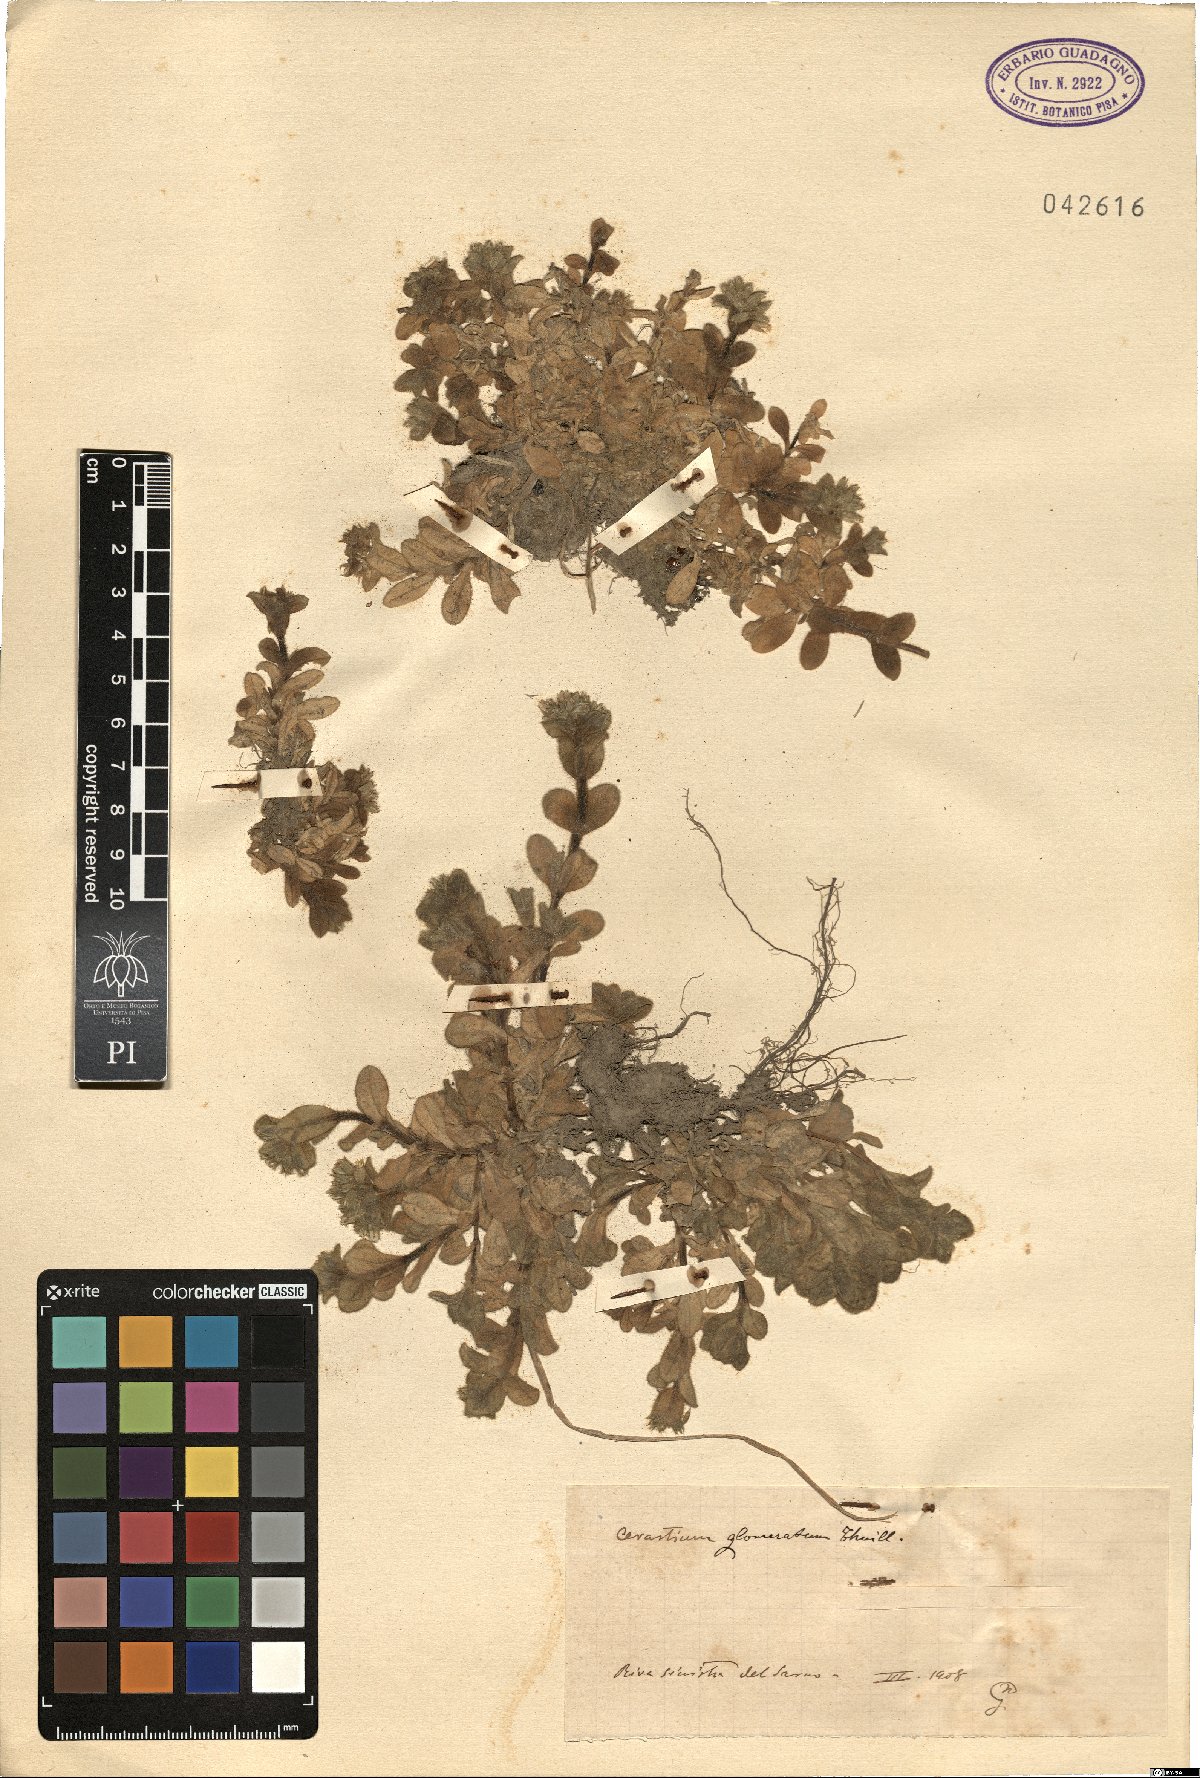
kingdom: Plantae
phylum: Tracheophyta
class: Magnoliopsida
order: Caryophyllales
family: Caryophyllaceae
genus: Cerastium
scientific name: Cerastium glomeratum
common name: Sticky chickweed
